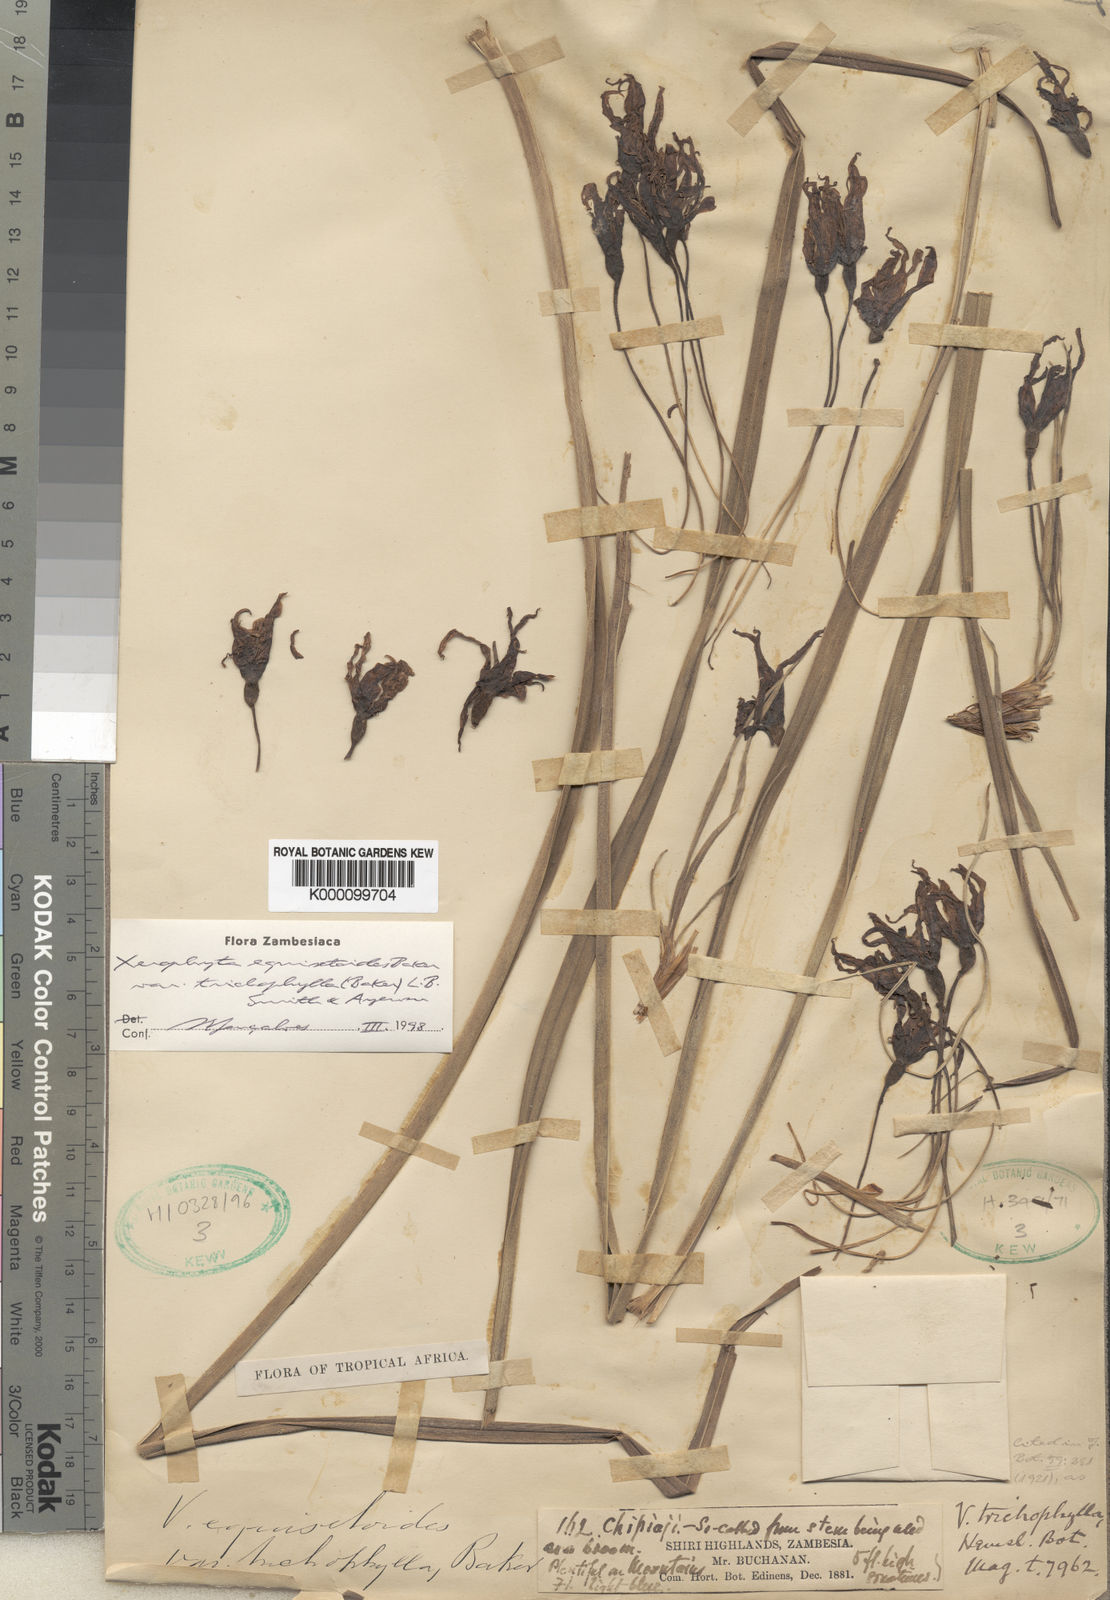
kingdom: Plantae
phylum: Tracheophyta
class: Liliopsida
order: Pandanales
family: Velloziaceae
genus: Xerophyta
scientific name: Xerophyta trichophylla
